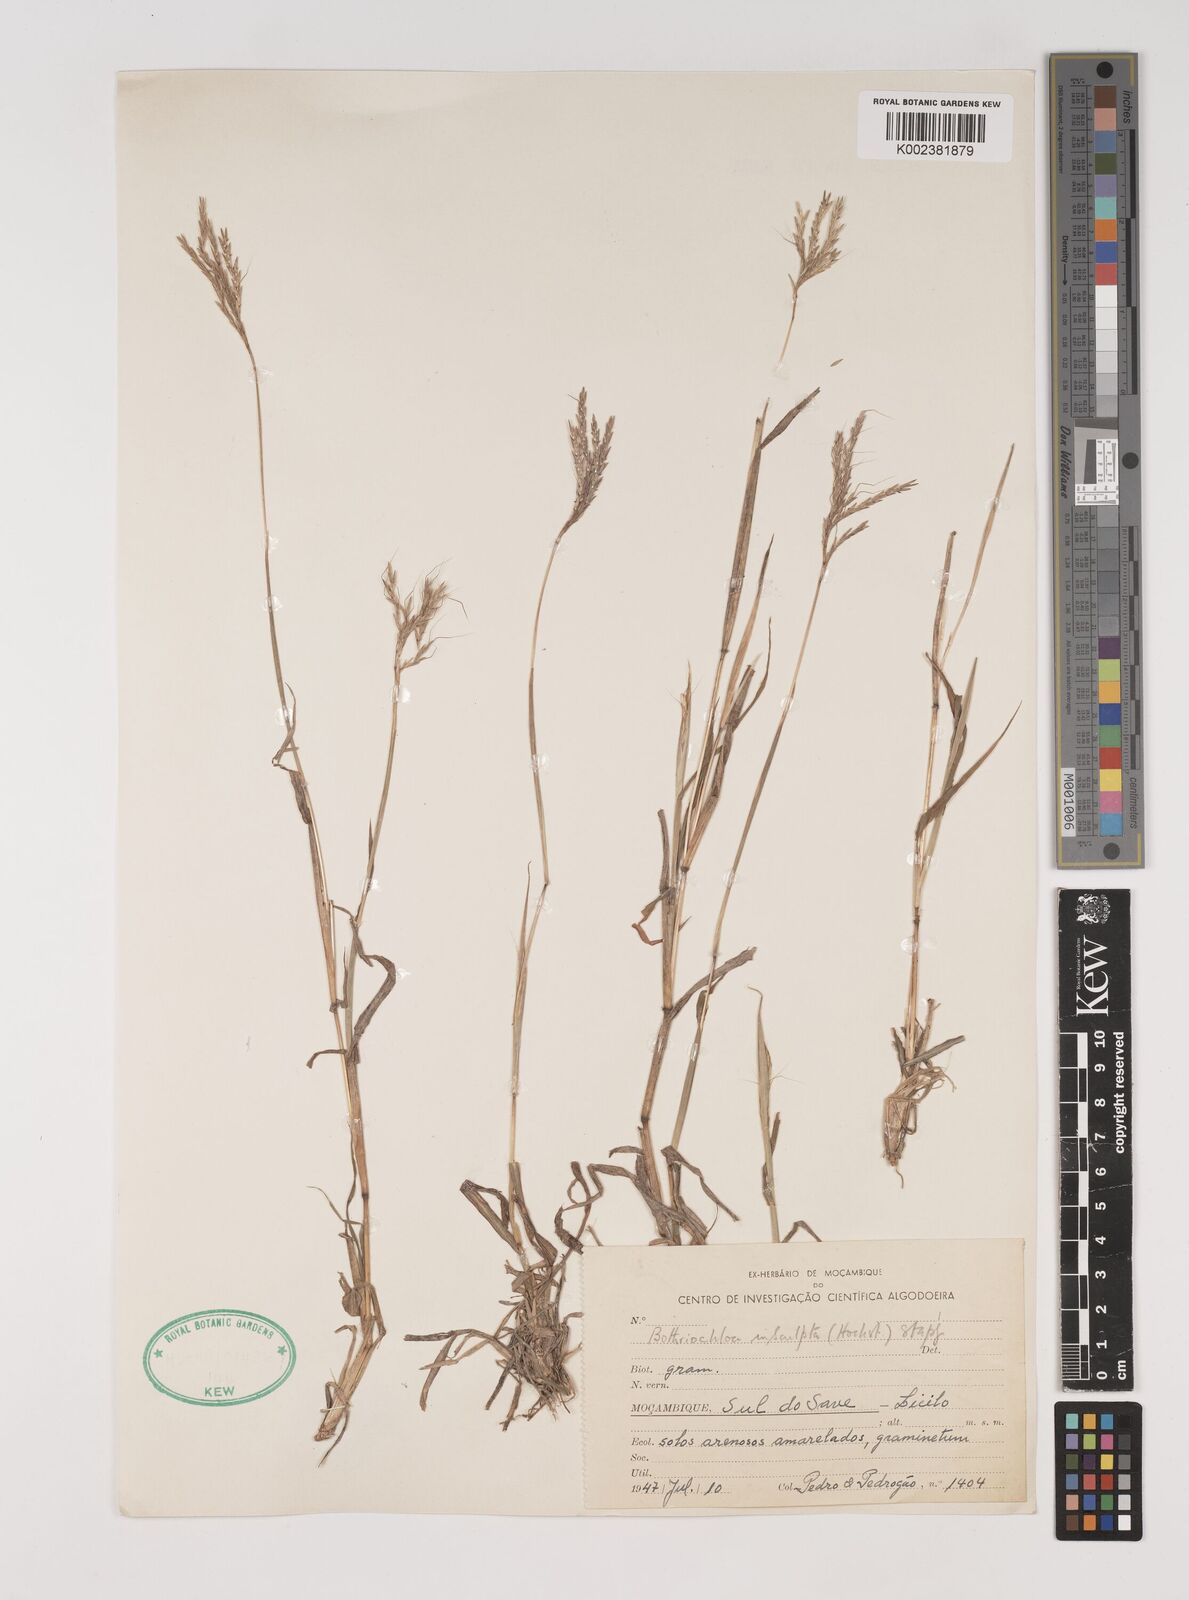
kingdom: Plantae
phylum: Tracheophyta
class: Liliopsida
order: Poales
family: Poaceae
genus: Bothriochloa
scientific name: Bothriochloa insculpta
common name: Creeping-bluegrass
